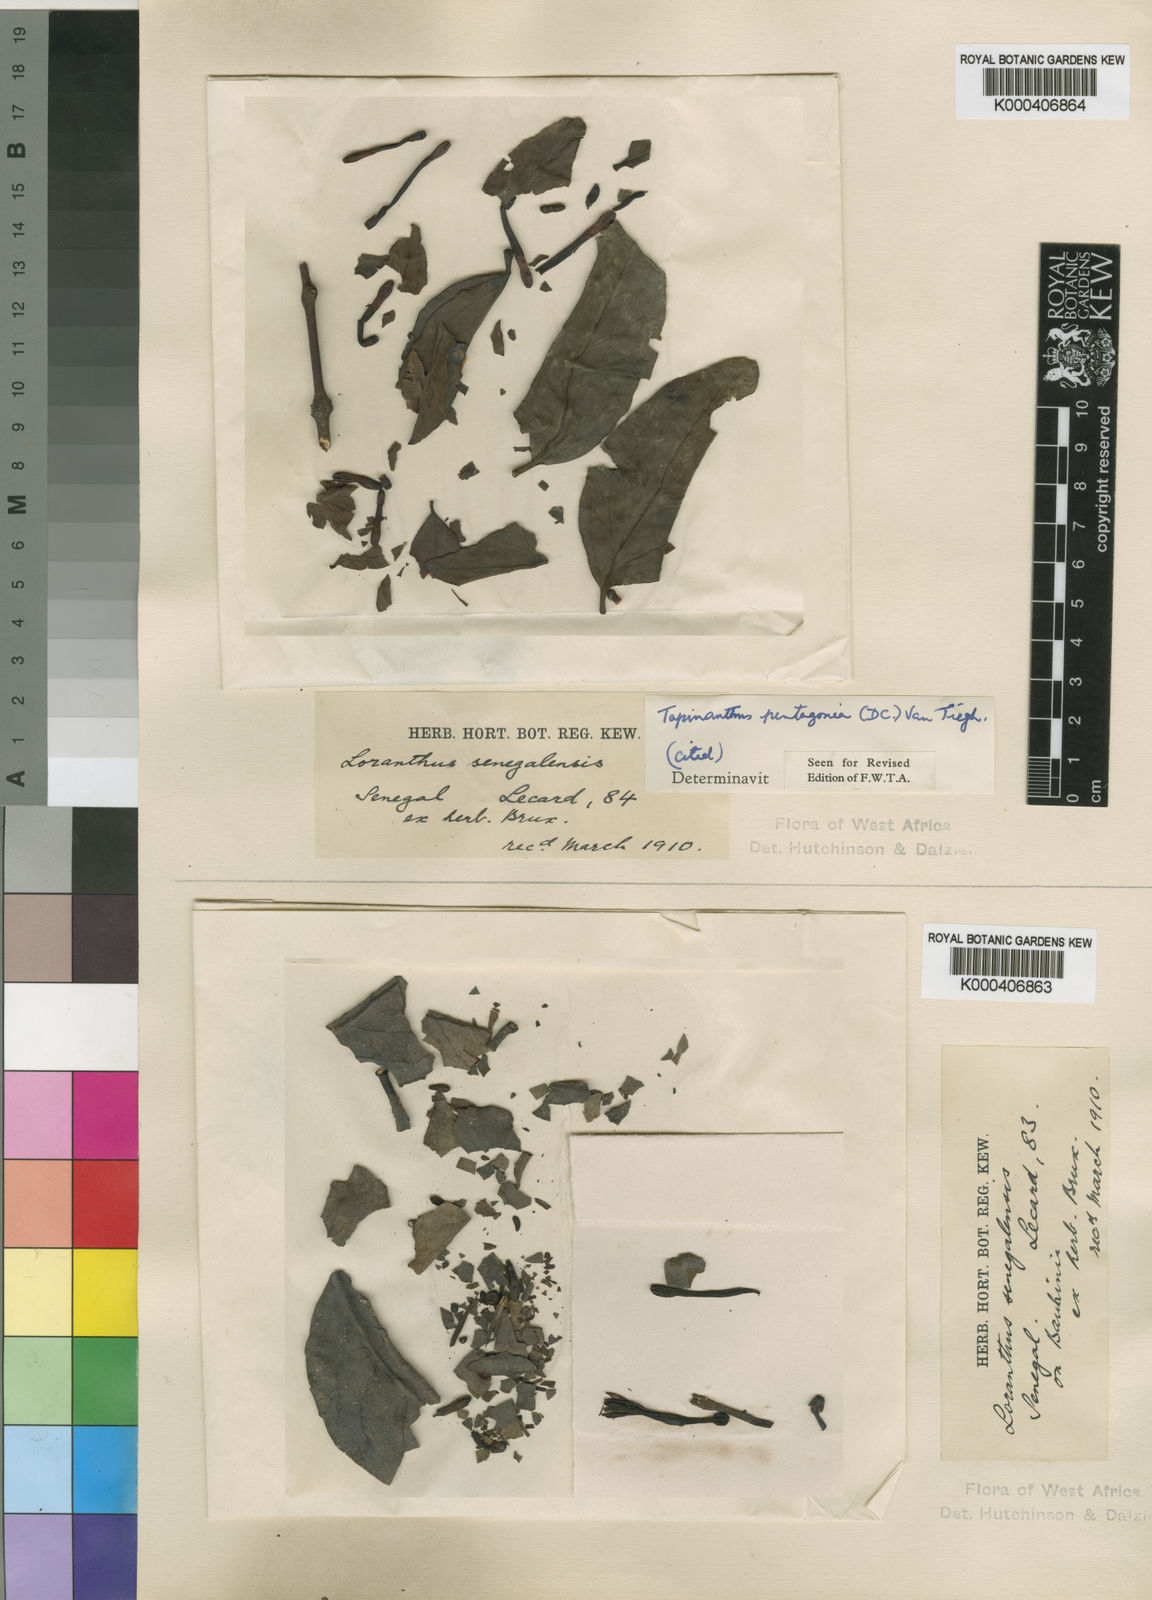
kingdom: Plantae
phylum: Tracheophyta
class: Magnoliopsida
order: Santalales
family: Loranthaceae
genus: Tapinanthus
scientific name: Tapinanthus pentagonia
